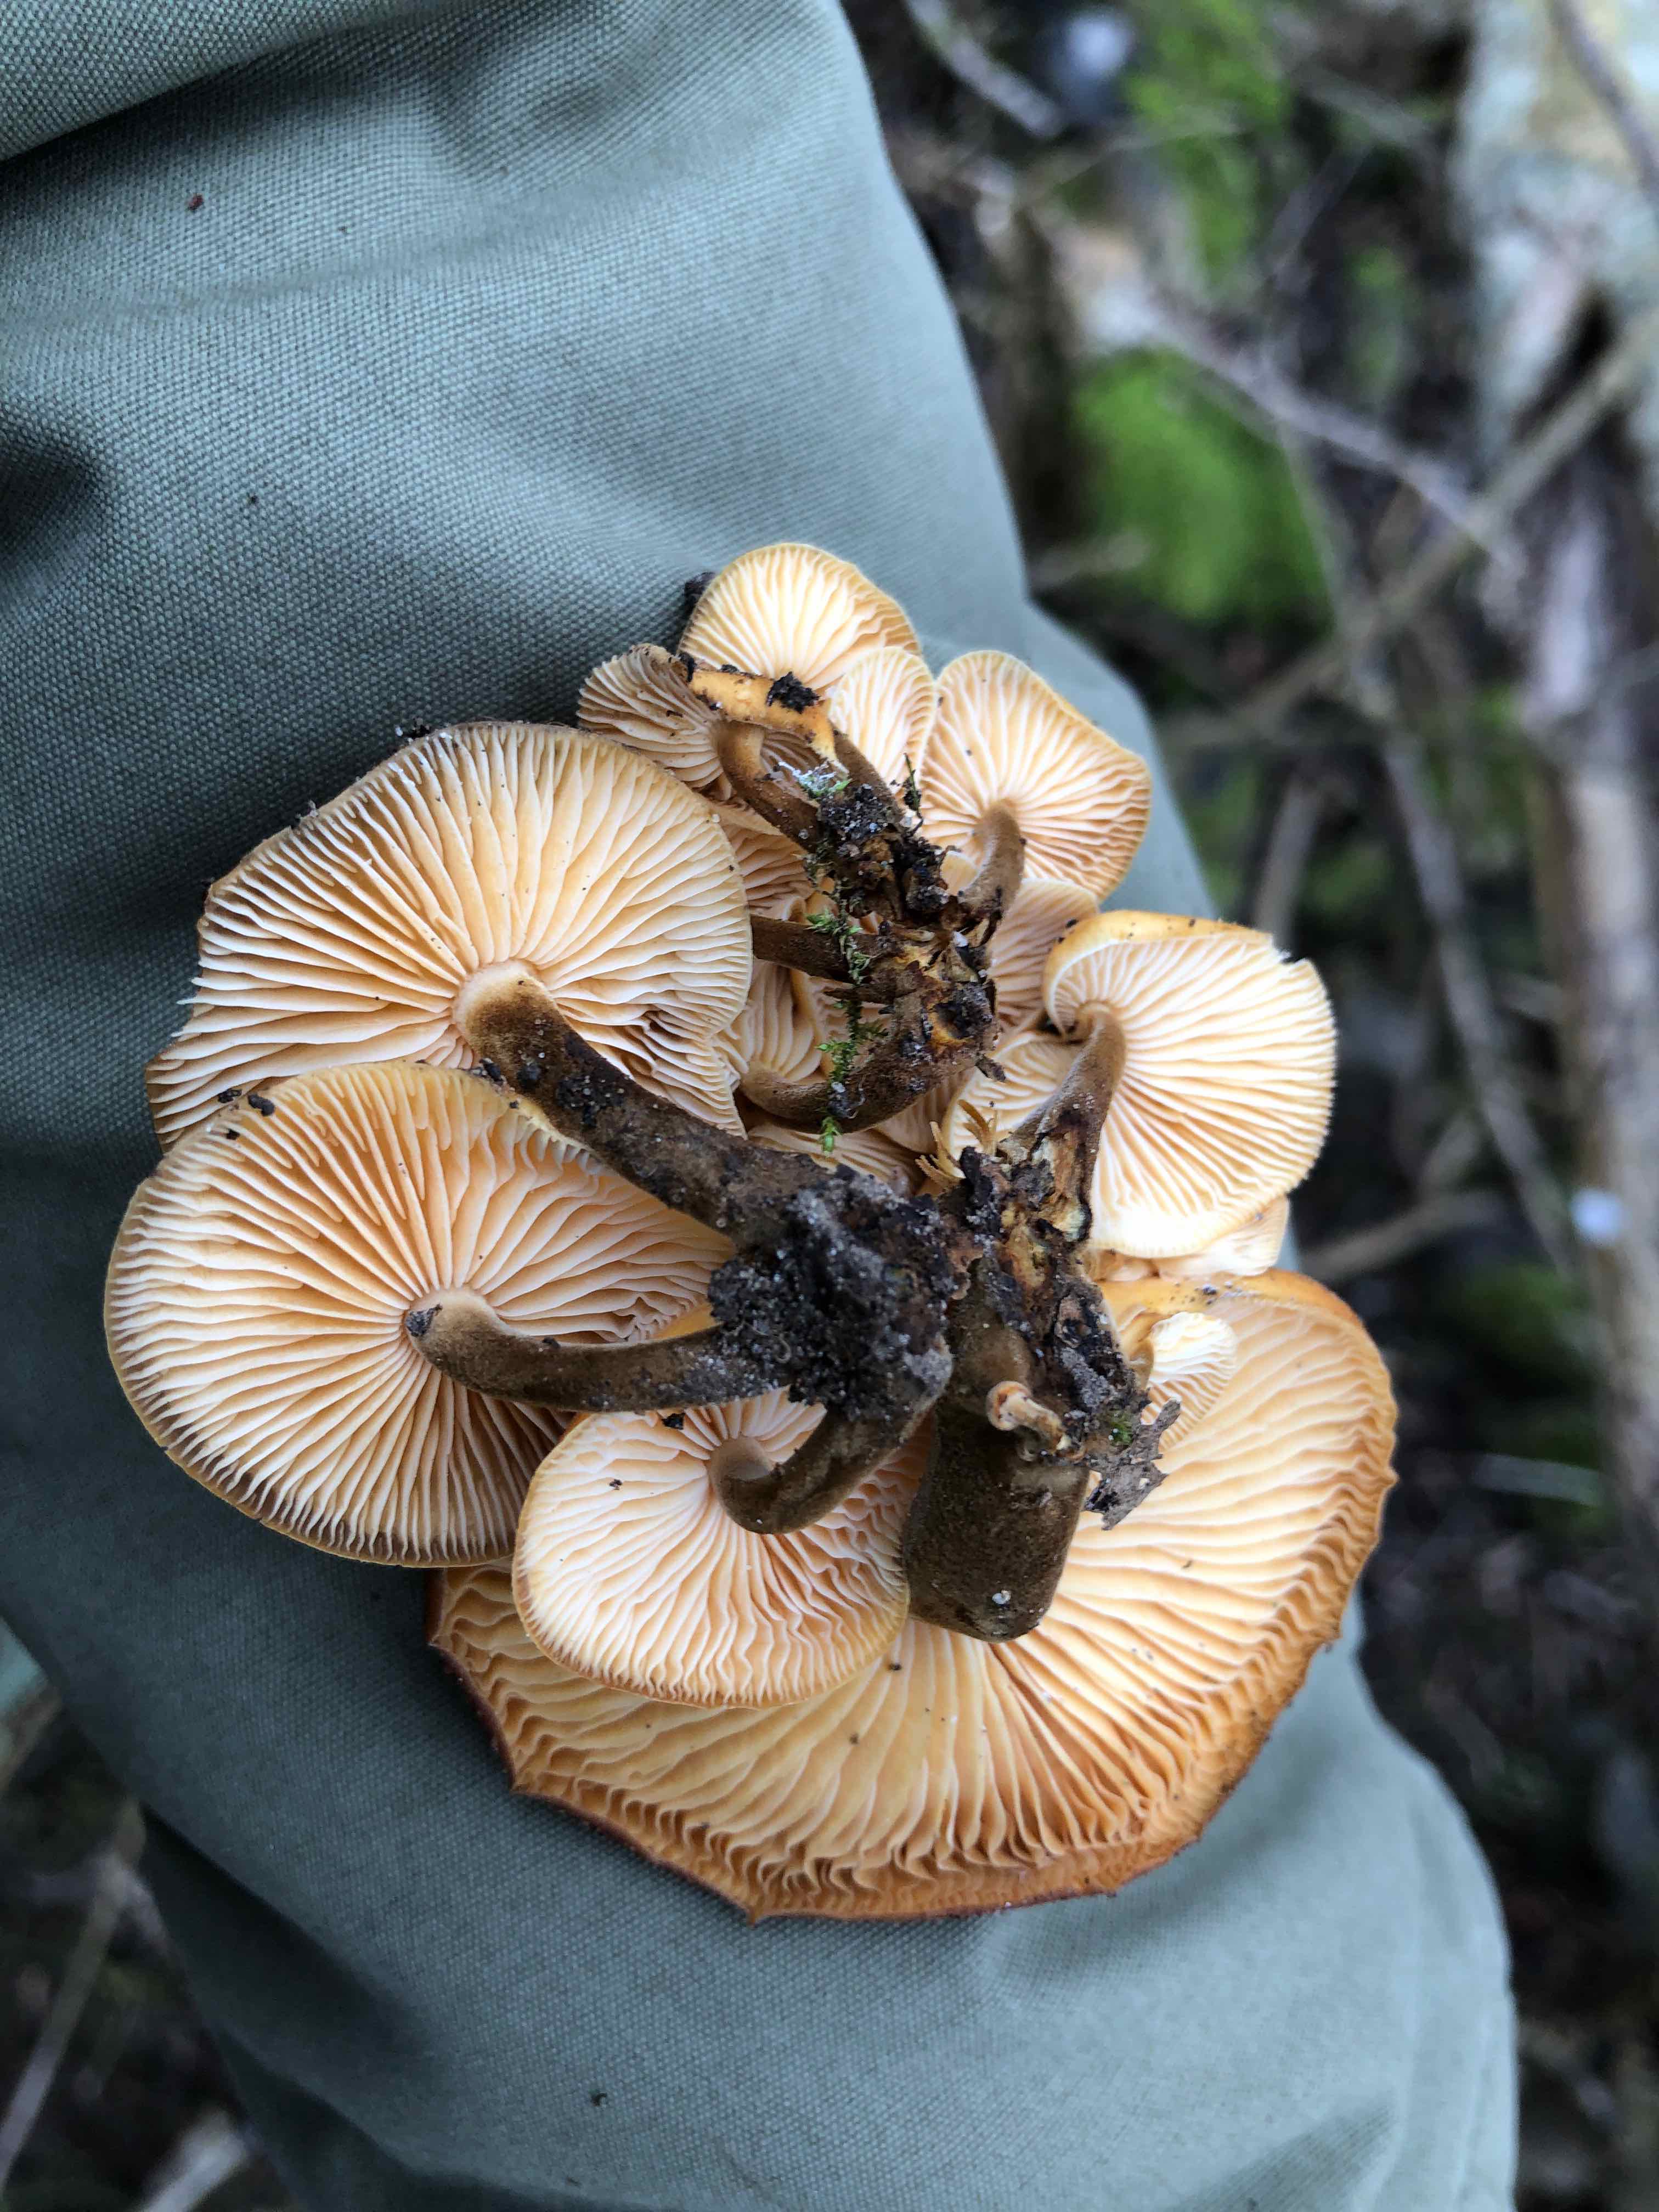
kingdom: Fungi
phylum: Basidiomycota
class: Agaricomycetes
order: Agaricales
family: Physalacriaceae
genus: Flammulina
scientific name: Flammulina velutipes
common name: gul fløjlsfod
